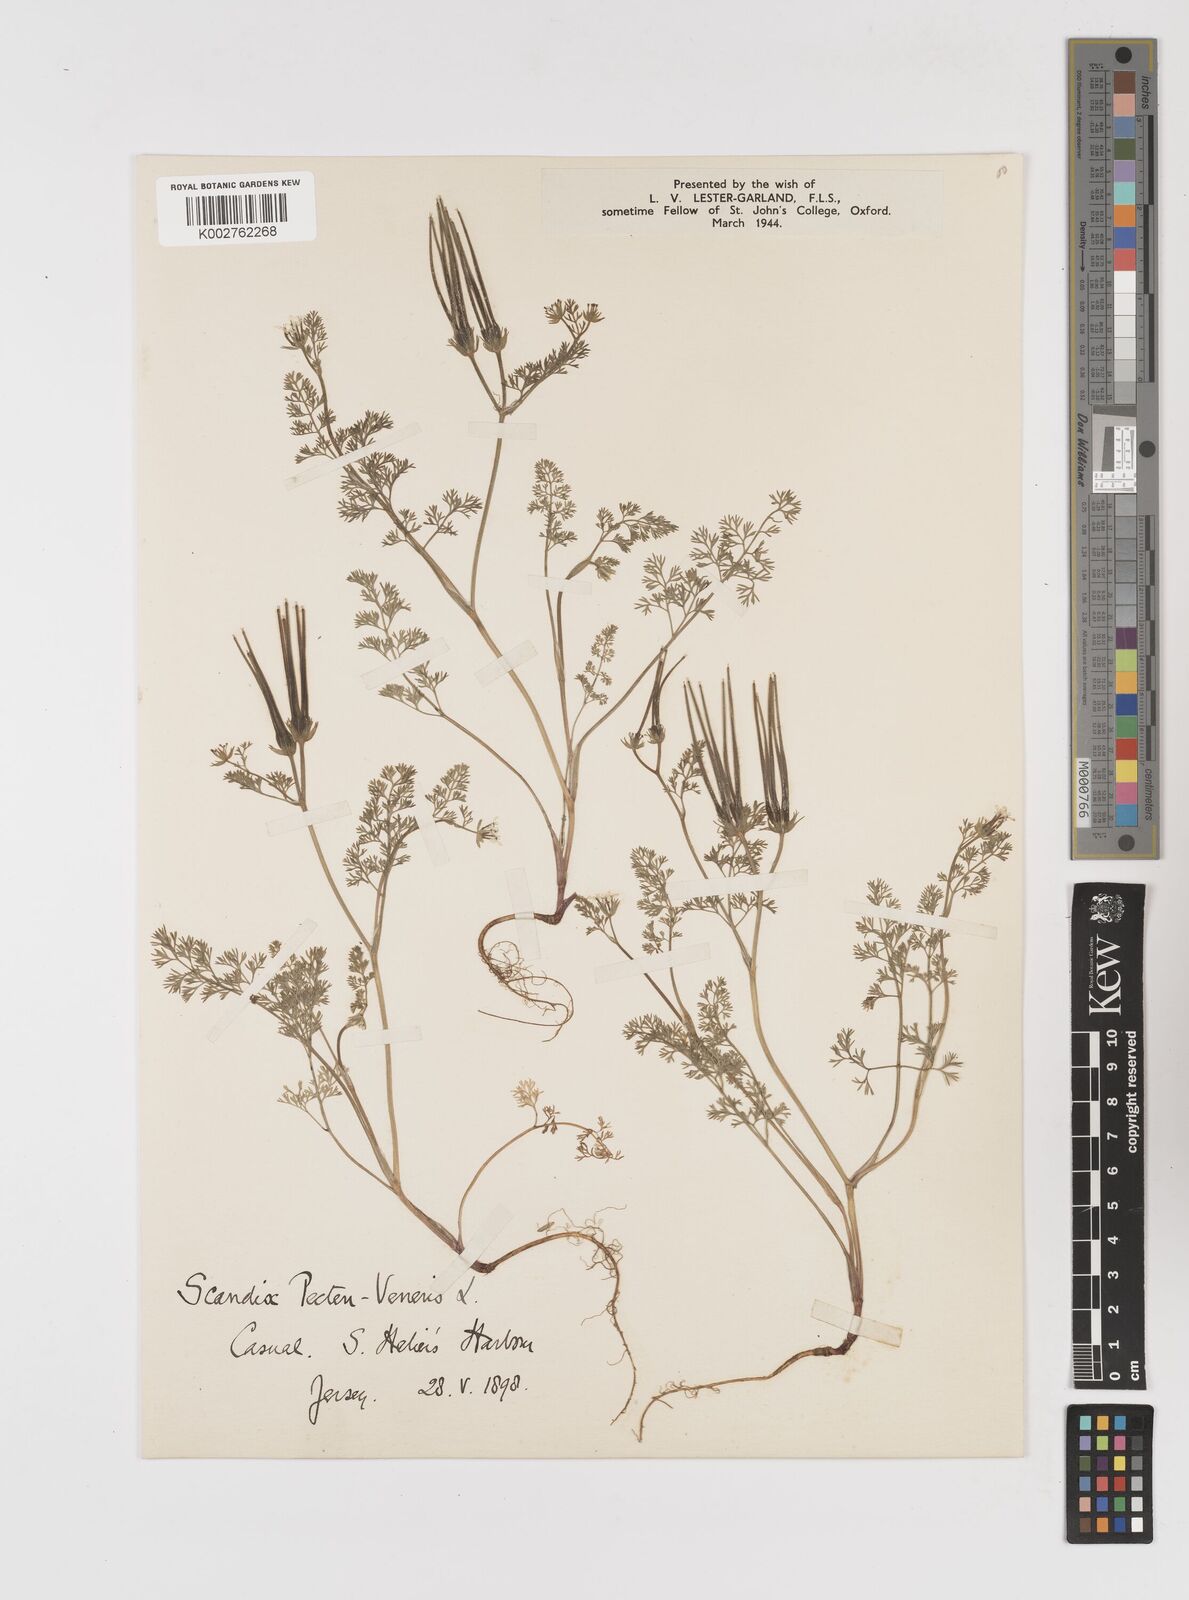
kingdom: Plantae
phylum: Tracheophyta
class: Magnoliopsida
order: Apiales
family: Apiaceae
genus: Scandix
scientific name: Scandix pecten-veneris
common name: Shepherd's-needle
